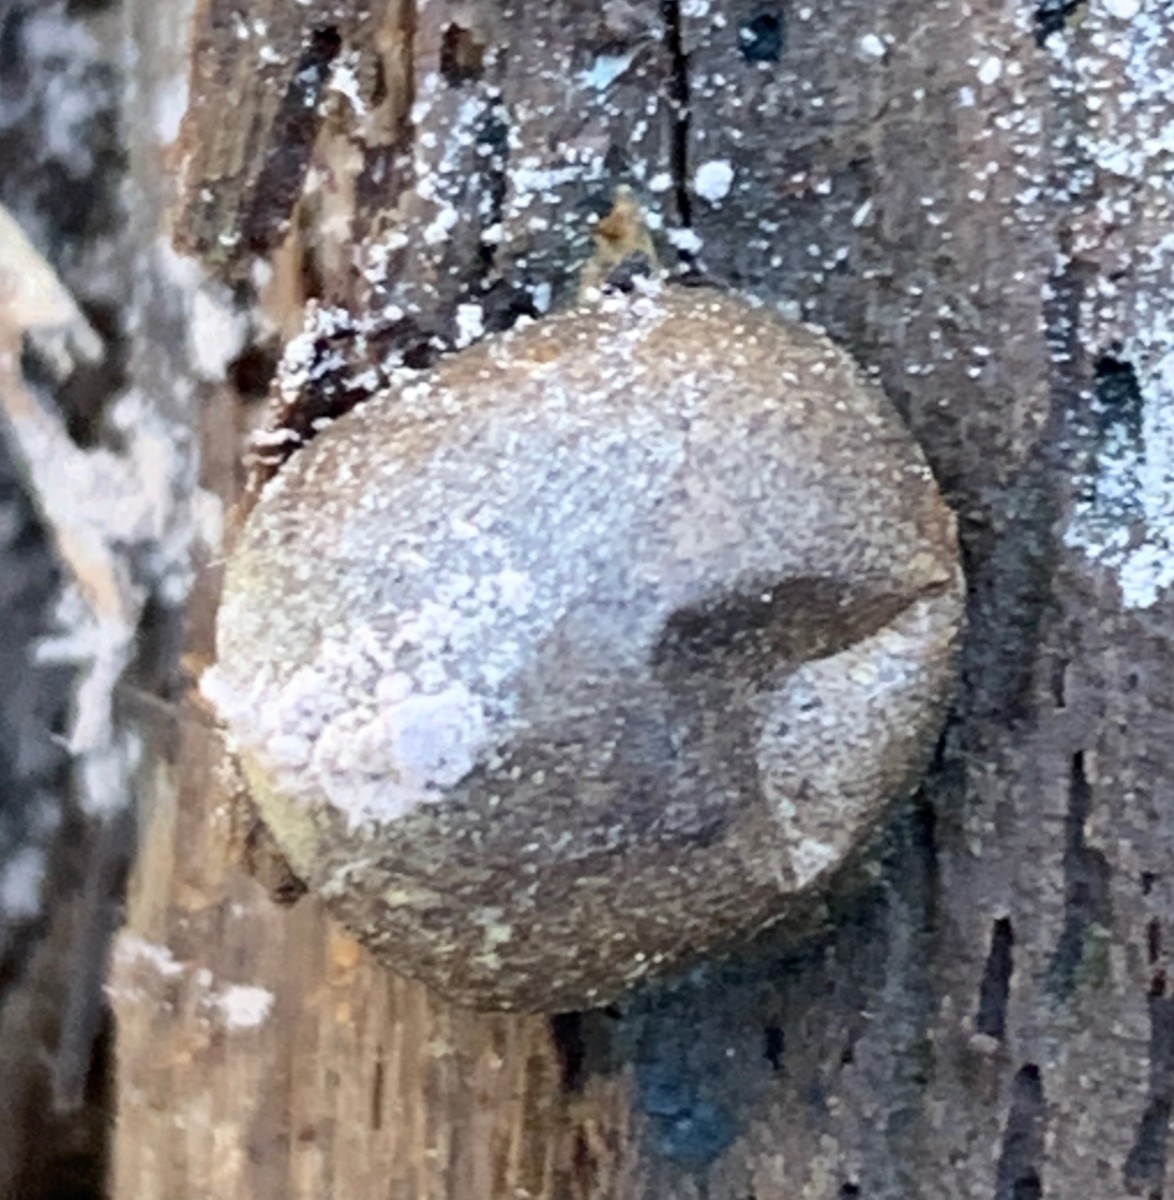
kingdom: Protozoa
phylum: Mycetozoa
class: Myxomycetes
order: Cribrariales
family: Tubiferaceae
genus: Lycogala
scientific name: Lycogala epidendrum
